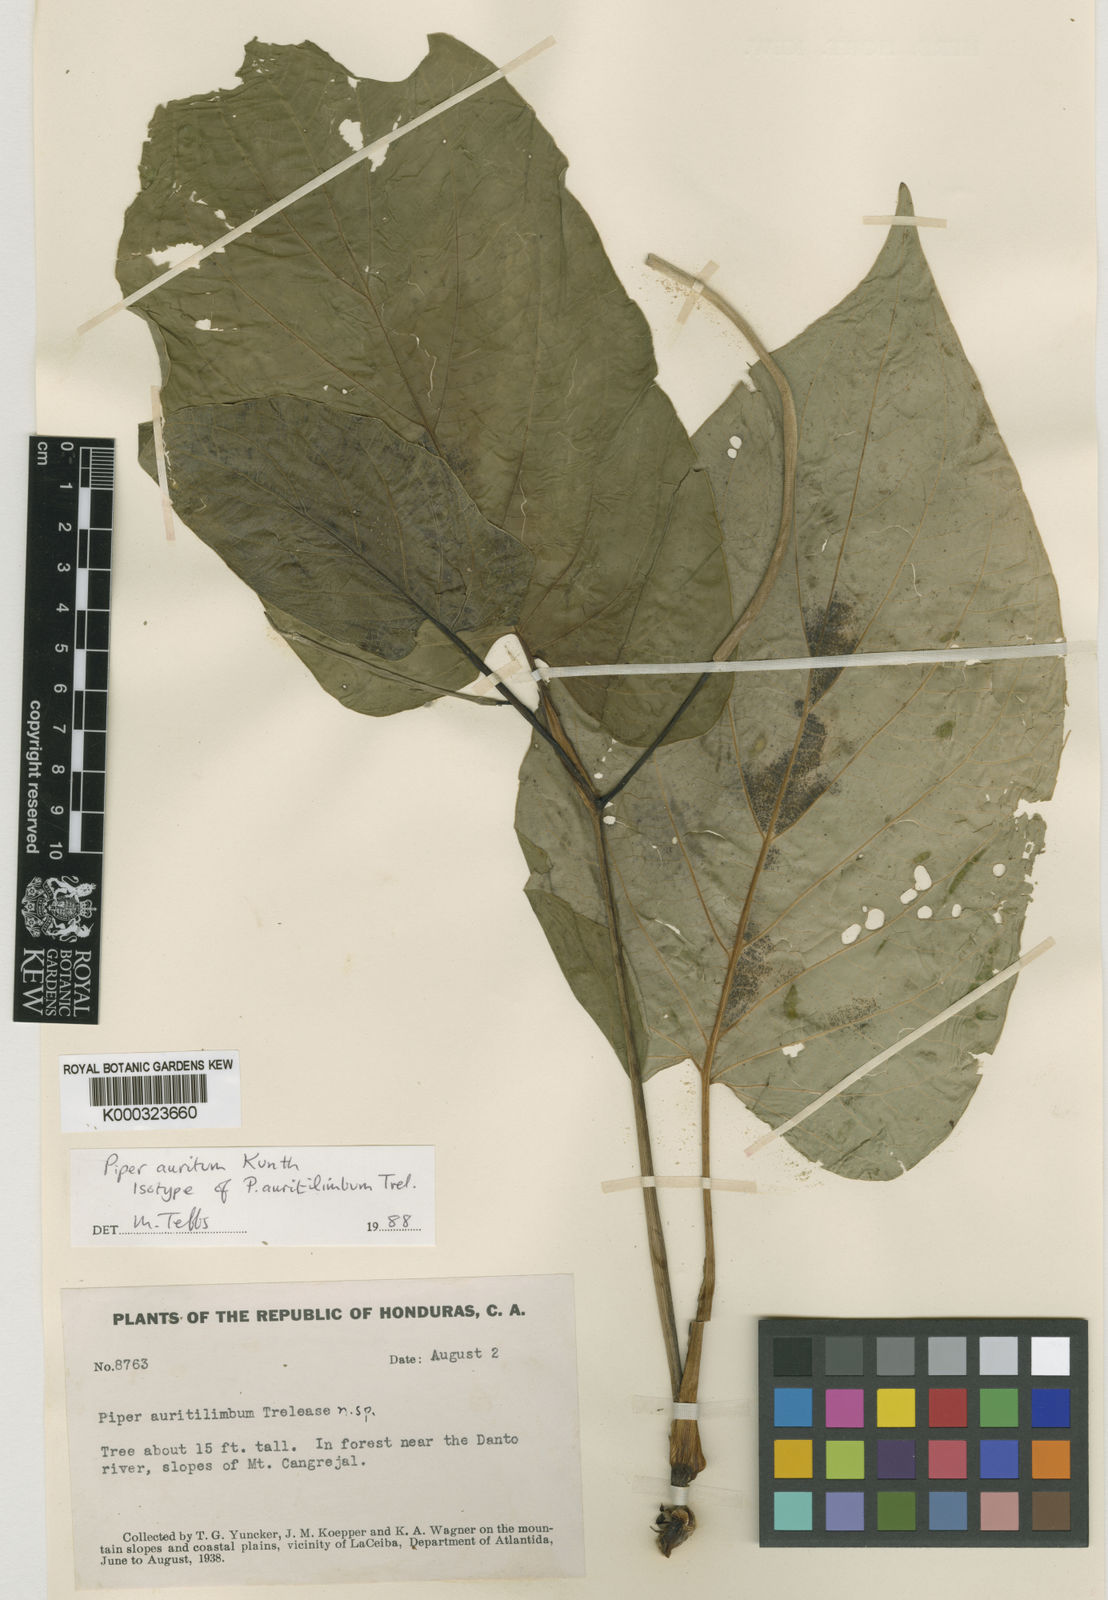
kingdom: Plantae
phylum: Tracheophyta
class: Magnoliopsida
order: Piperales
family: Piperaceae
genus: Piper
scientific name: Piper
